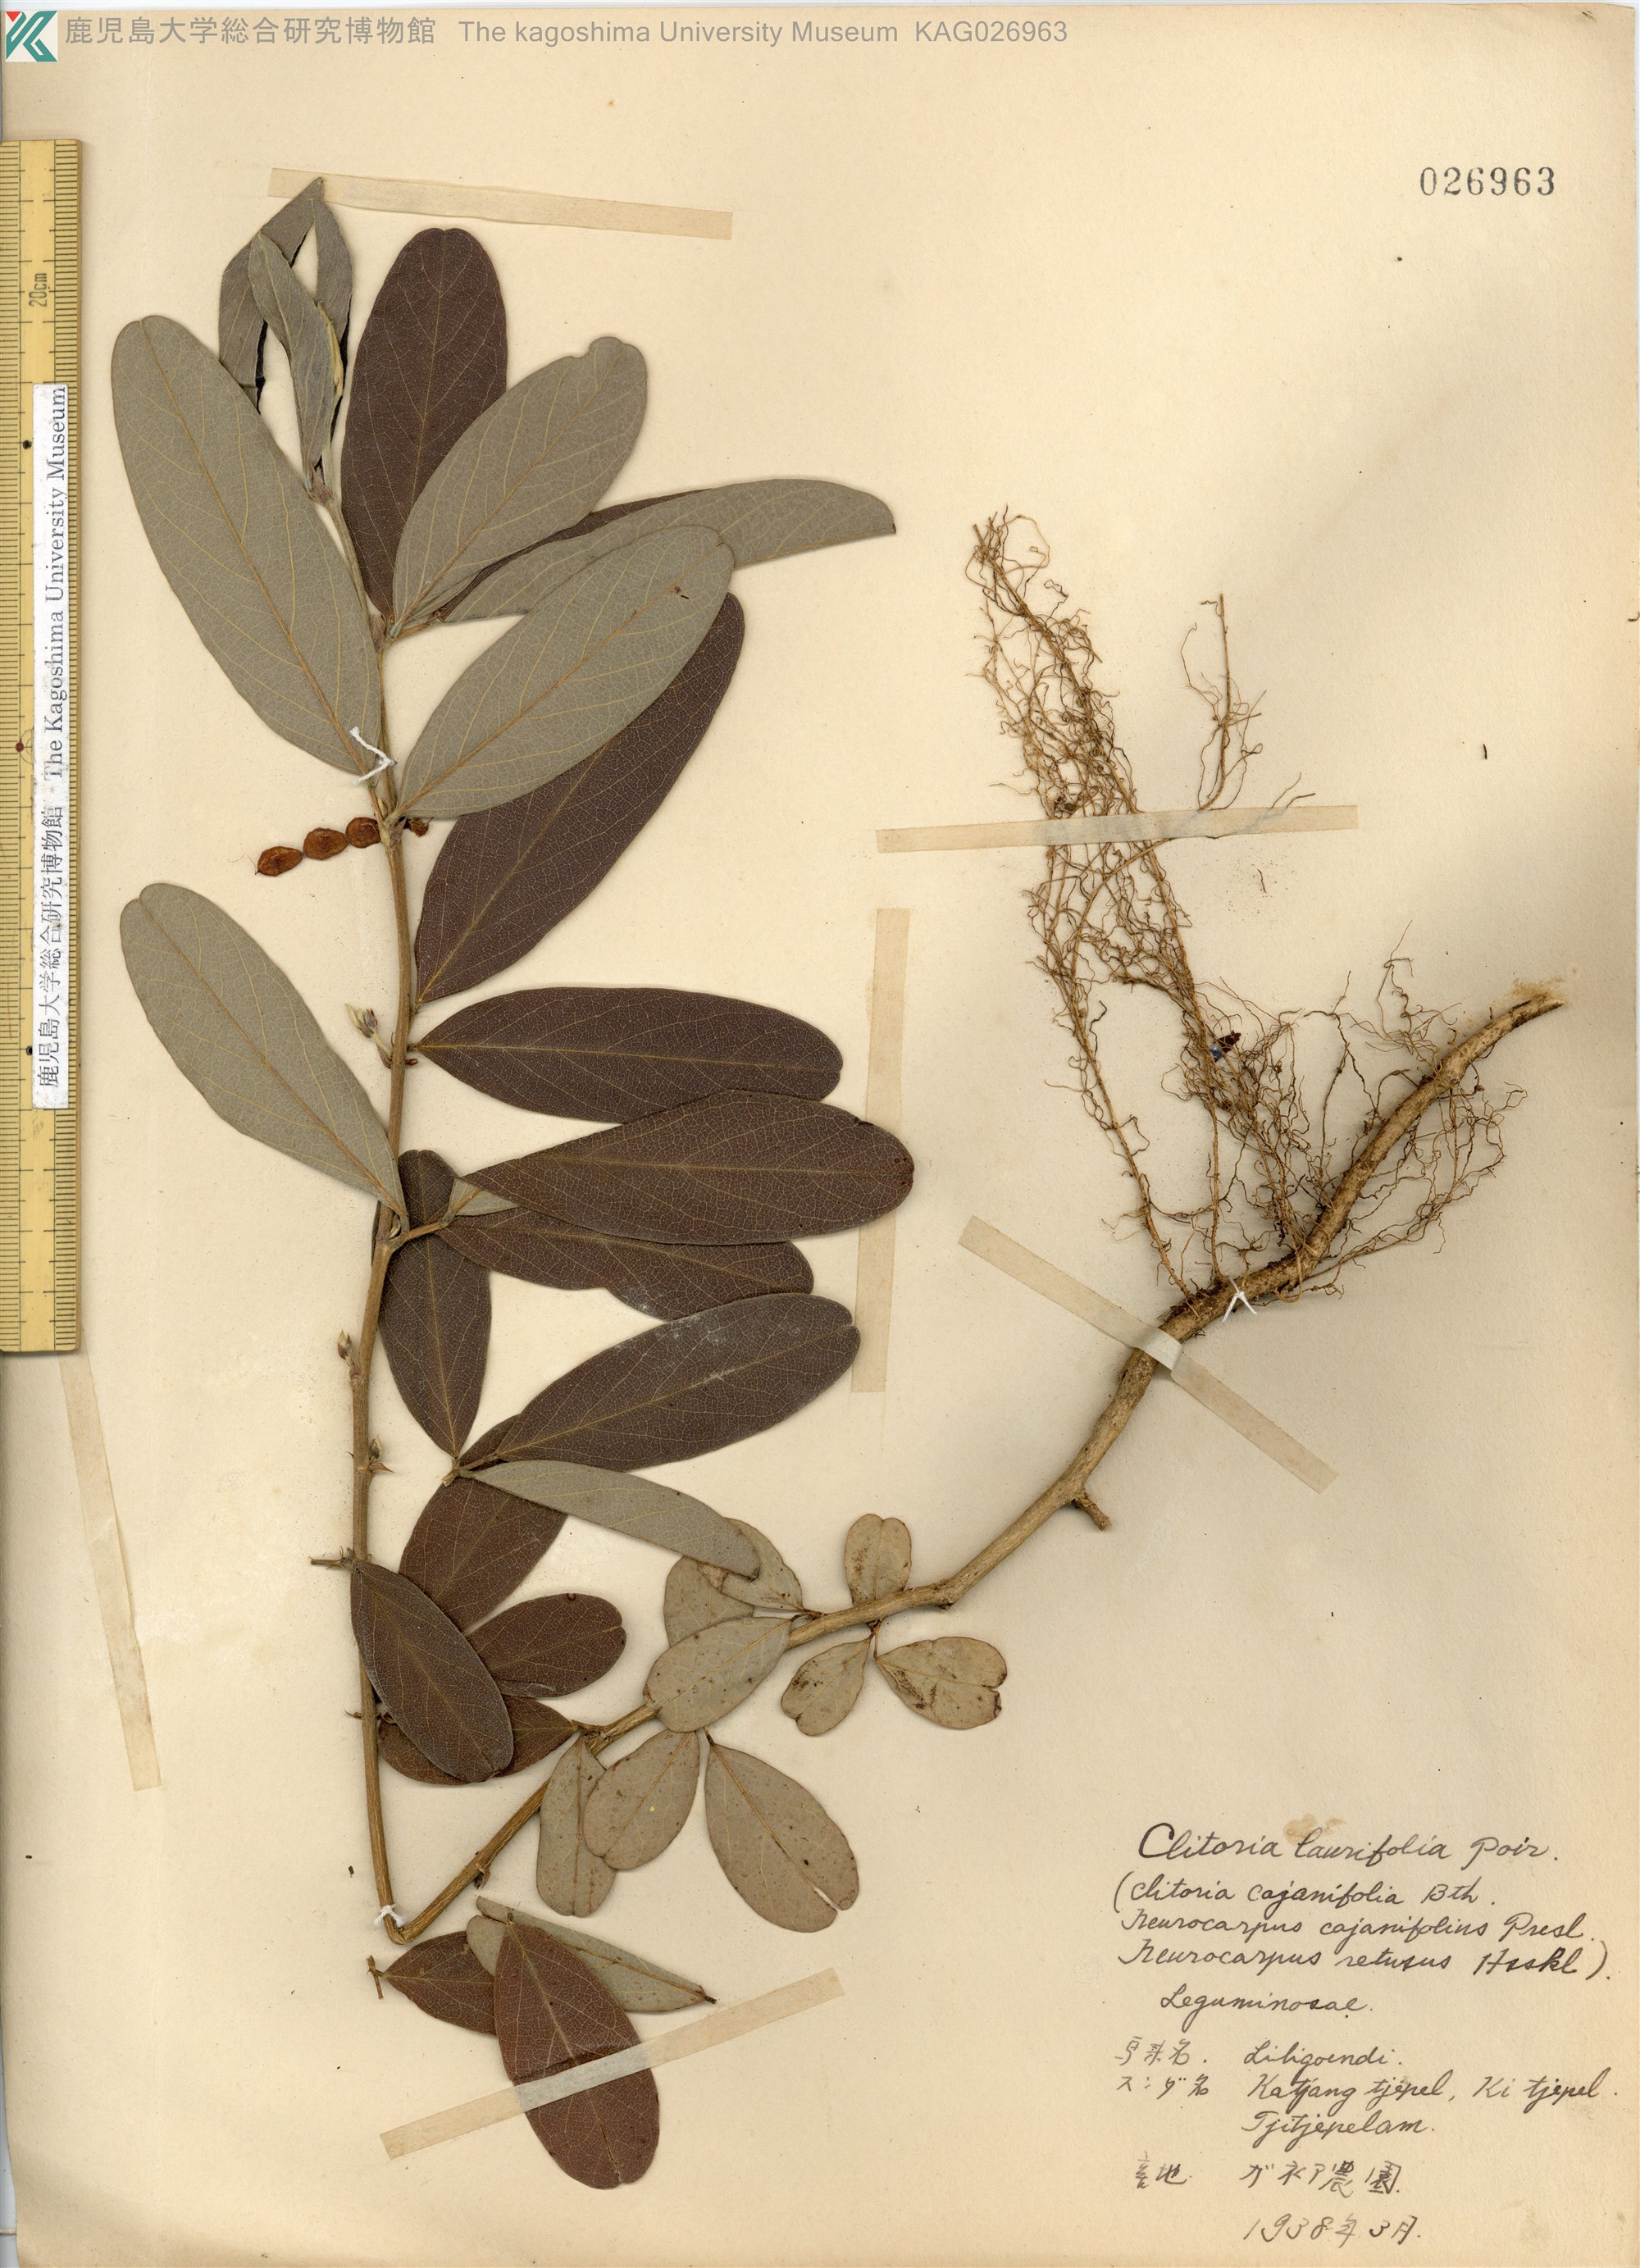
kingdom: Plantae
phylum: Tracheophyta
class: Magnoliopsida
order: Fabales
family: Fabaceae
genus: Clitoria
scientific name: Clitoria laurifolia
